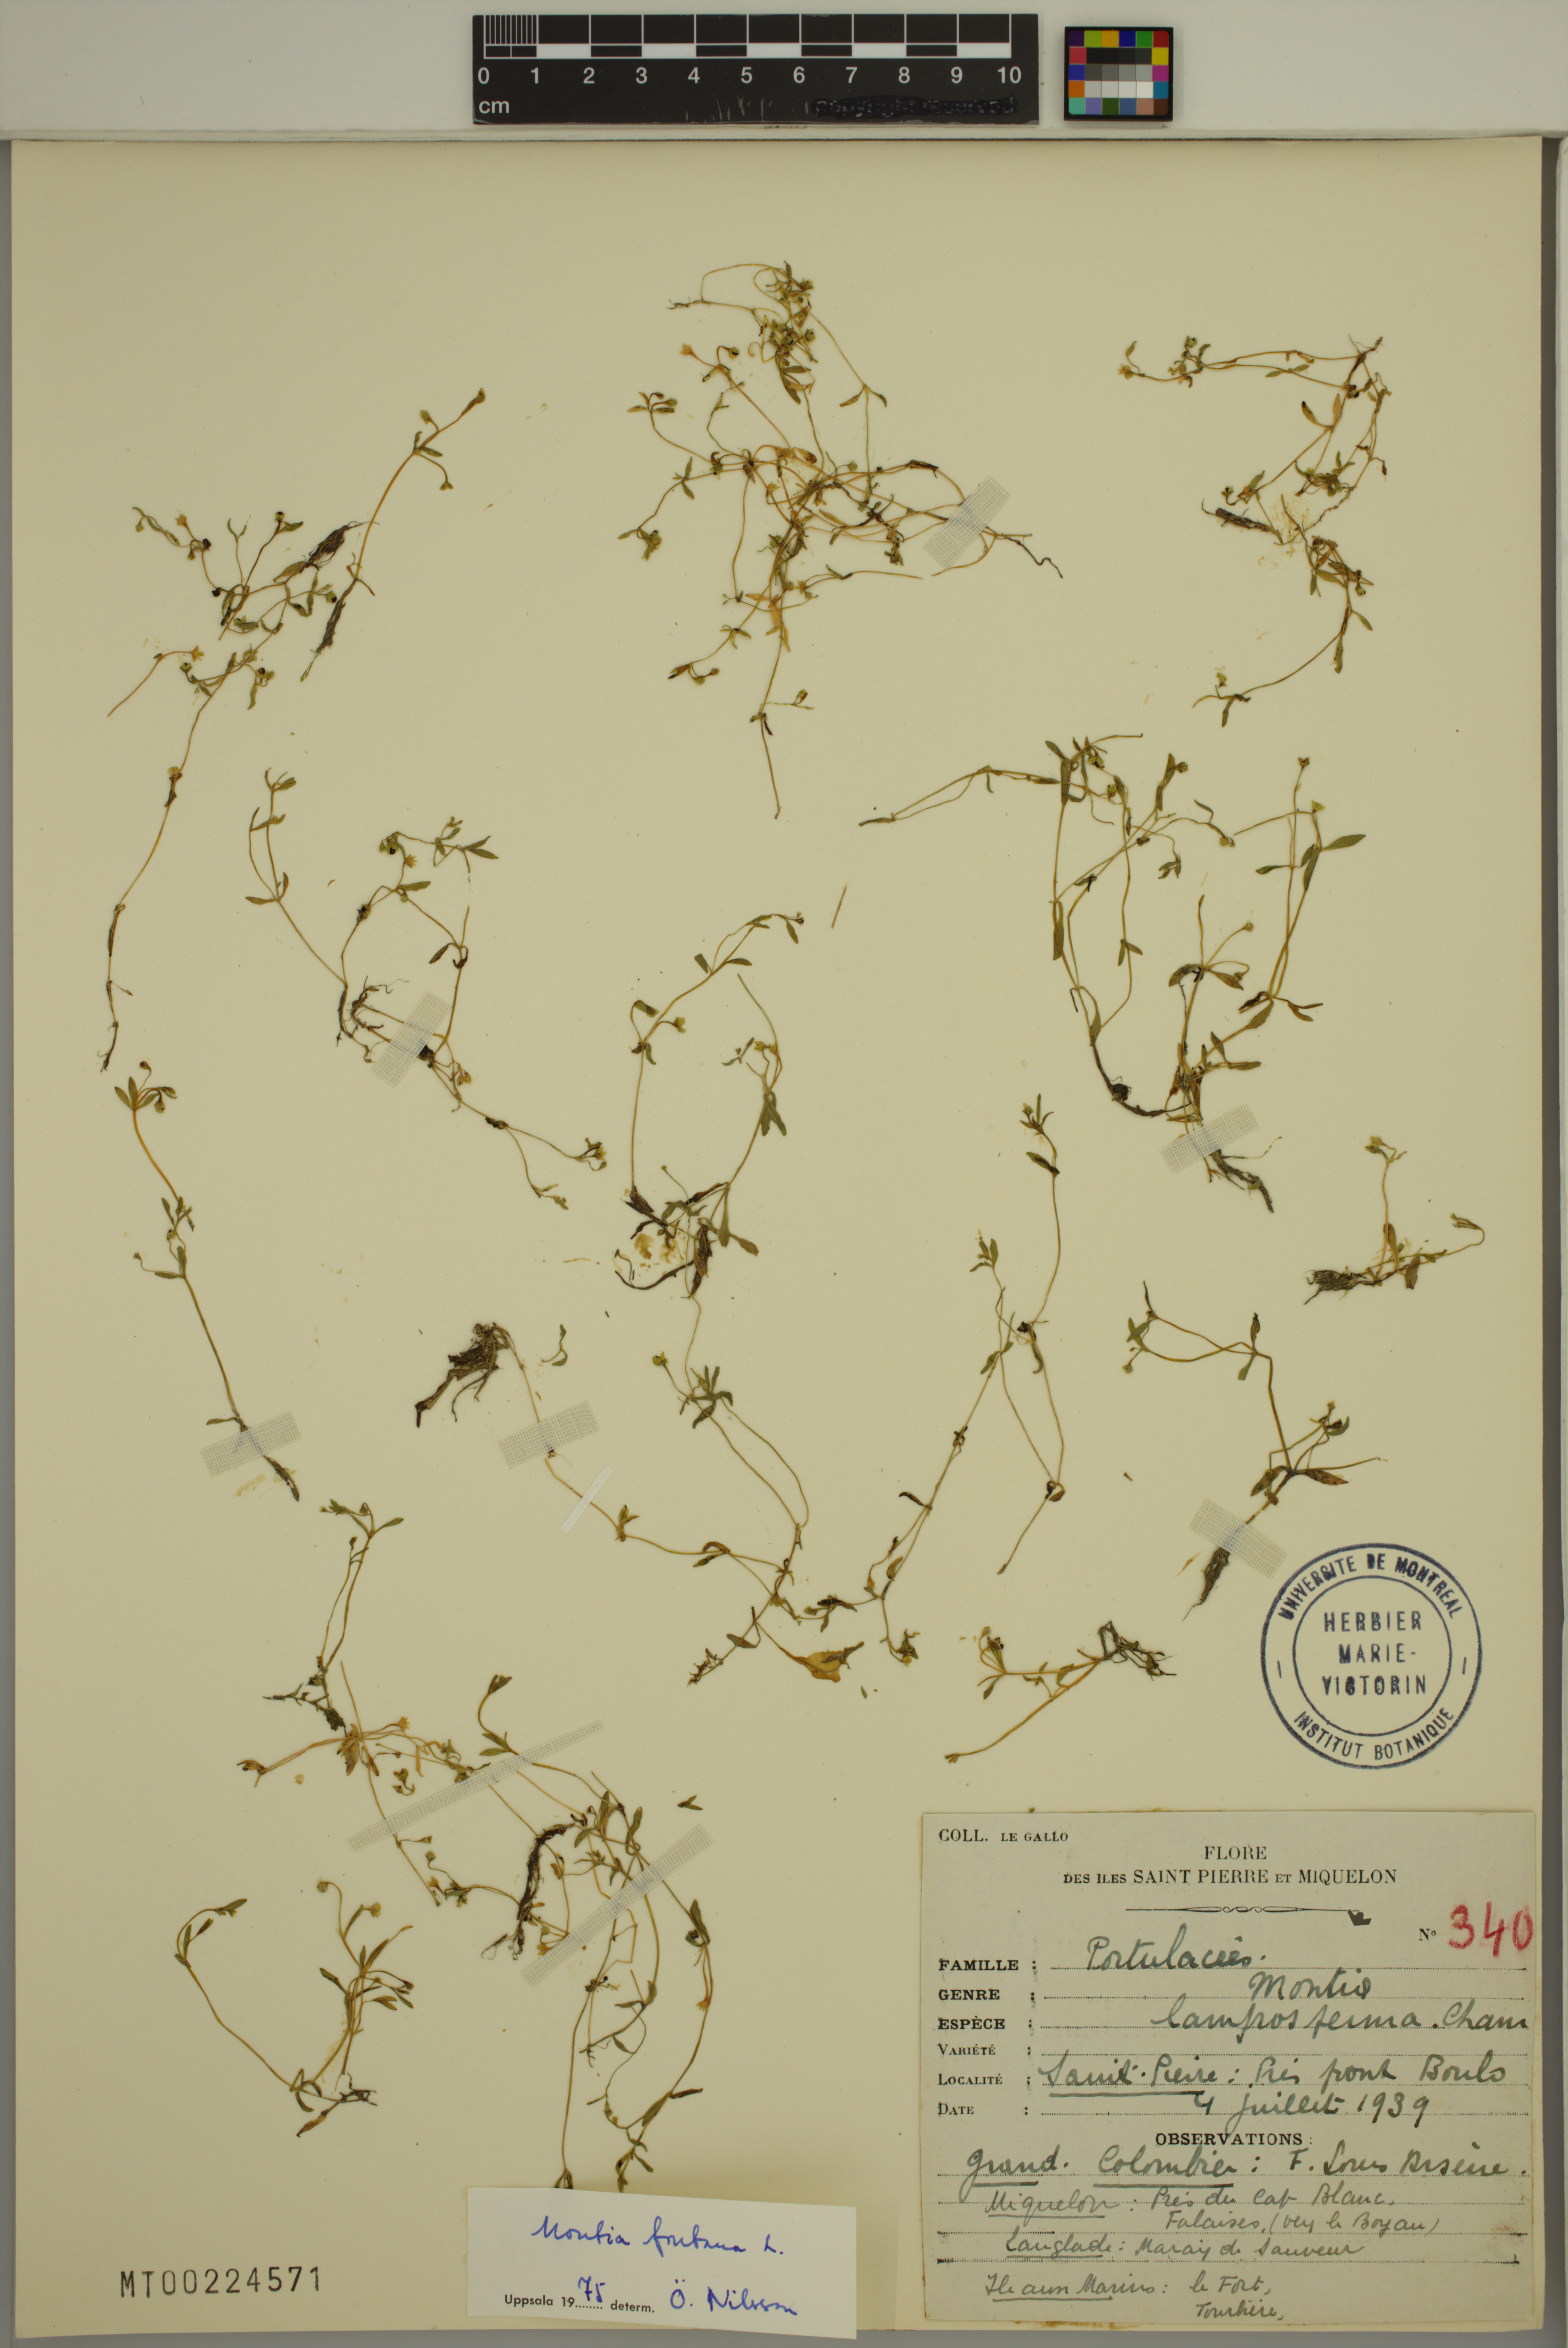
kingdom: Plantae
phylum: Tracheophyta
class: Magnoliopsida
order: Caryophyllales
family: Montiaceae
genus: Montia
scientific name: Montia fontana
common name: Blinks
